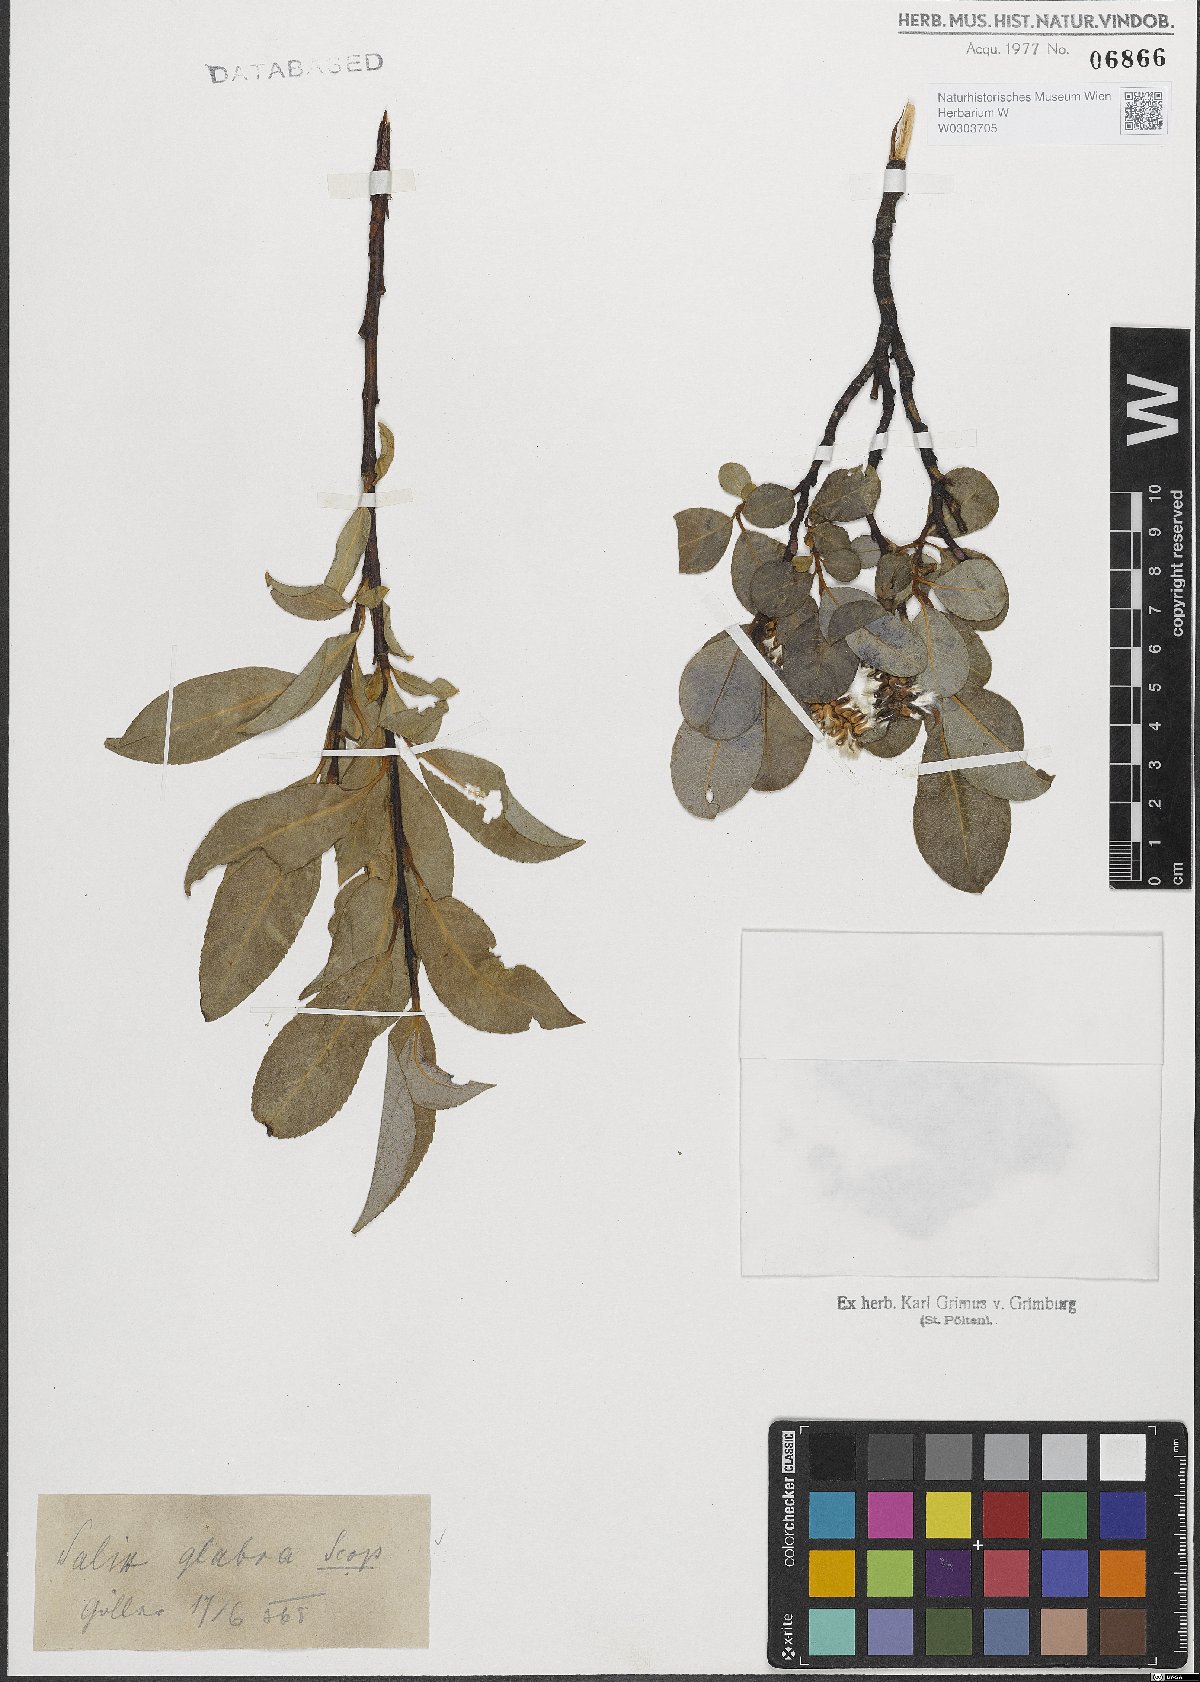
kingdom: Plantae
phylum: Tracheophyta
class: Magnoliopsida
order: Malpighiales
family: Salicaceae
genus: Salix
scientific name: Salix glabra
